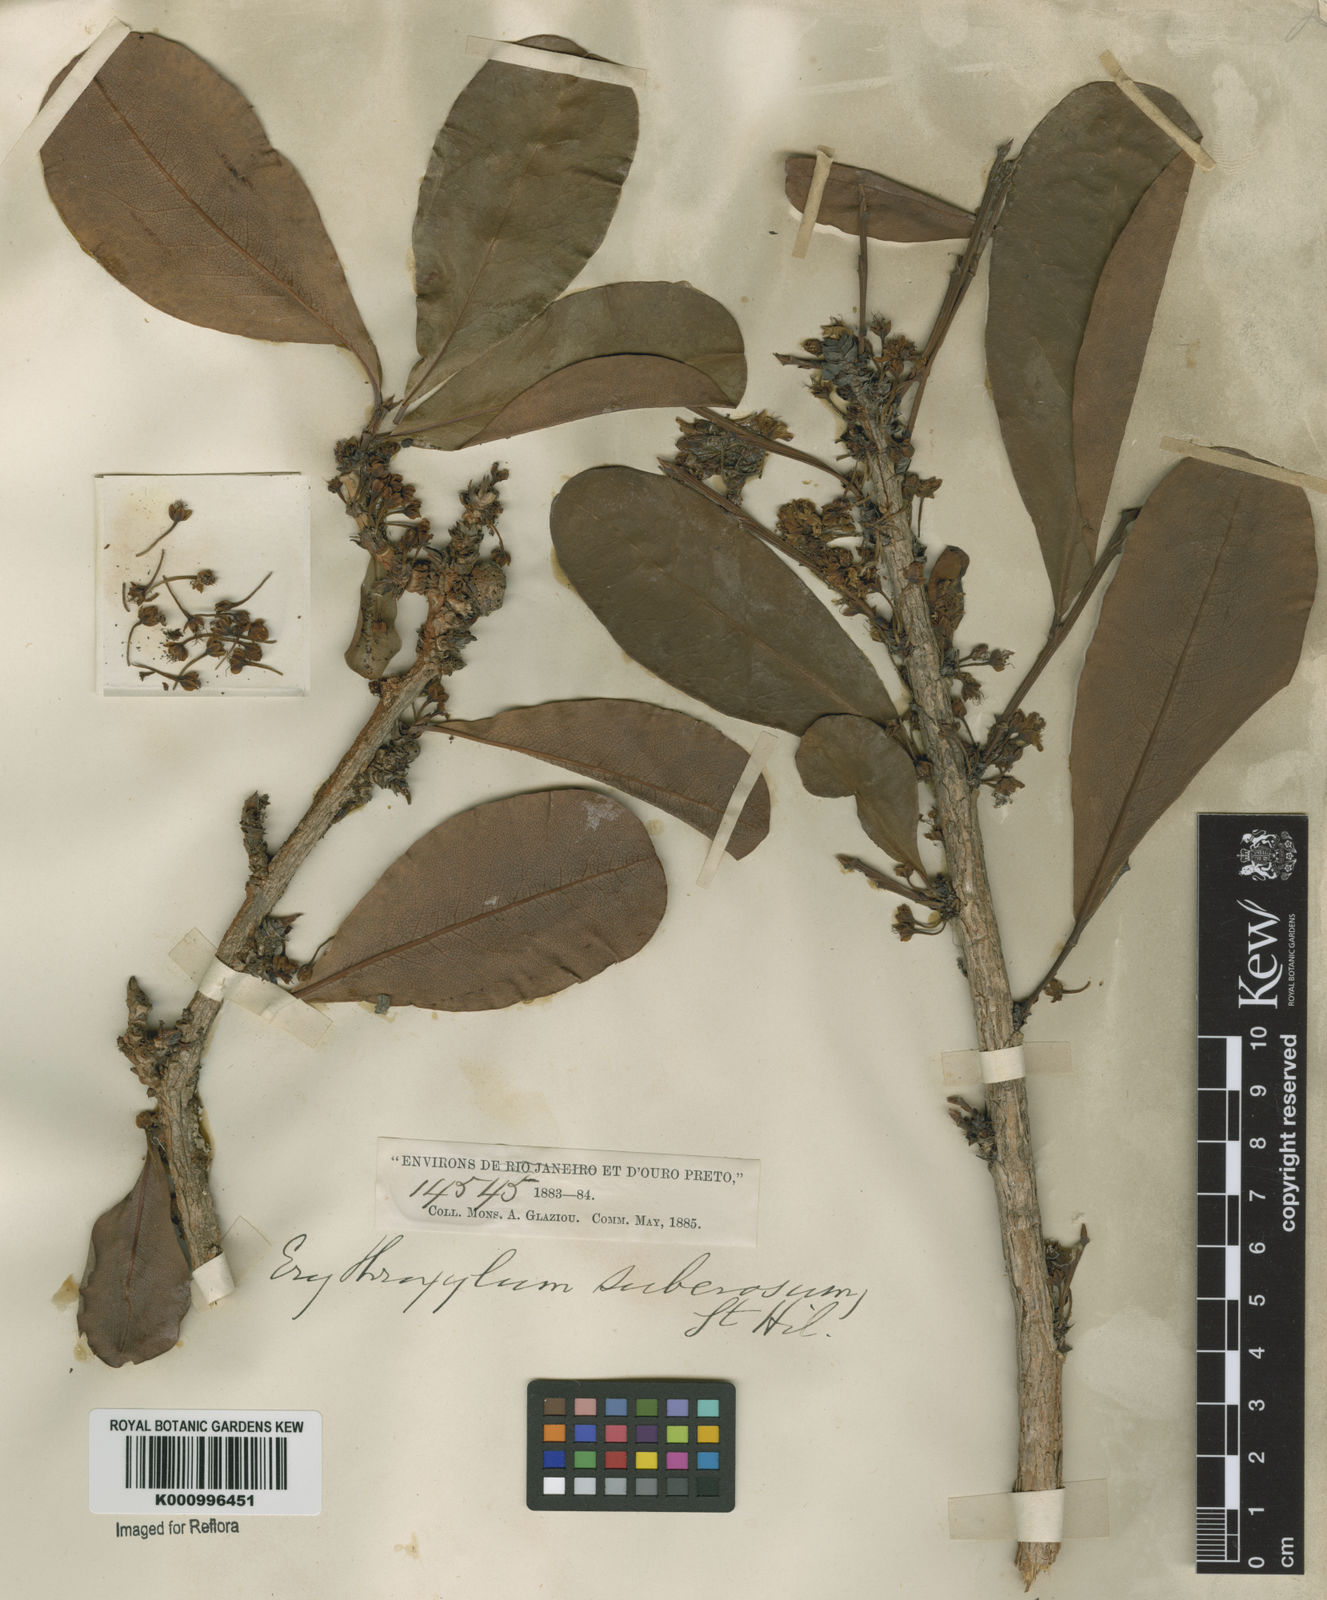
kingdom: Plantae
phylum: Tracheophyta
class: Magnoliopsida
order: Malpighiales
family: Erythroxylaceae
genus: Erythroxylum
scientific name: Erythroxylum suberosum
